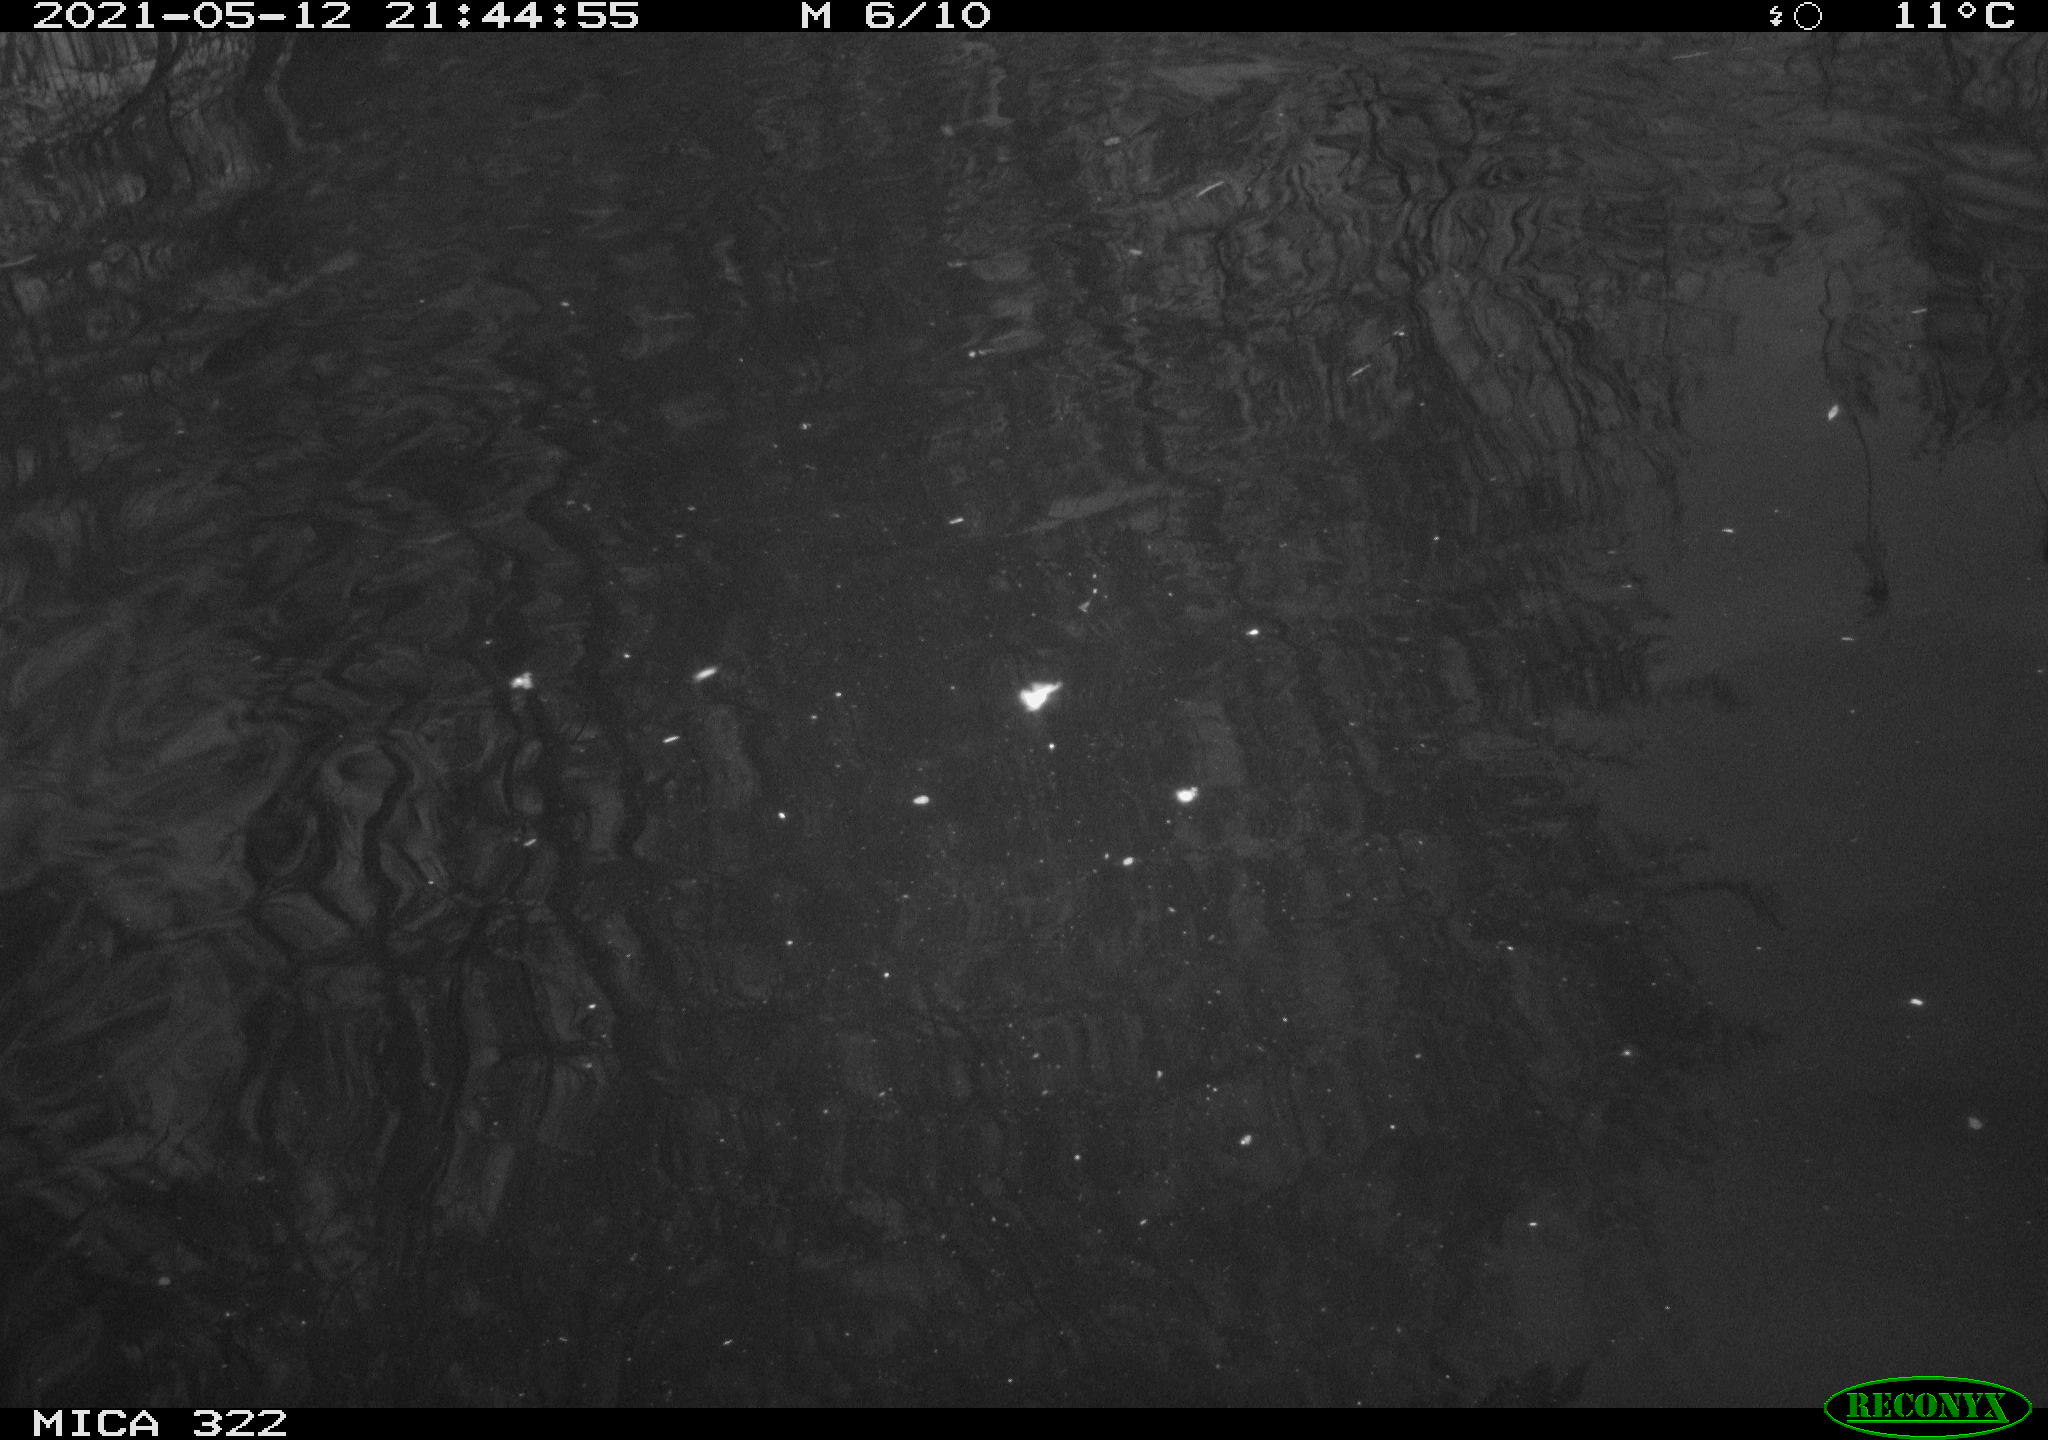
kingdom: Animalia
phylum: Chordata
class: Mammalia
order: Rodentia
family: Cricetidae
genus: Ondatra
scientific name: Ondatra zibethicus
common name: Muskrat
